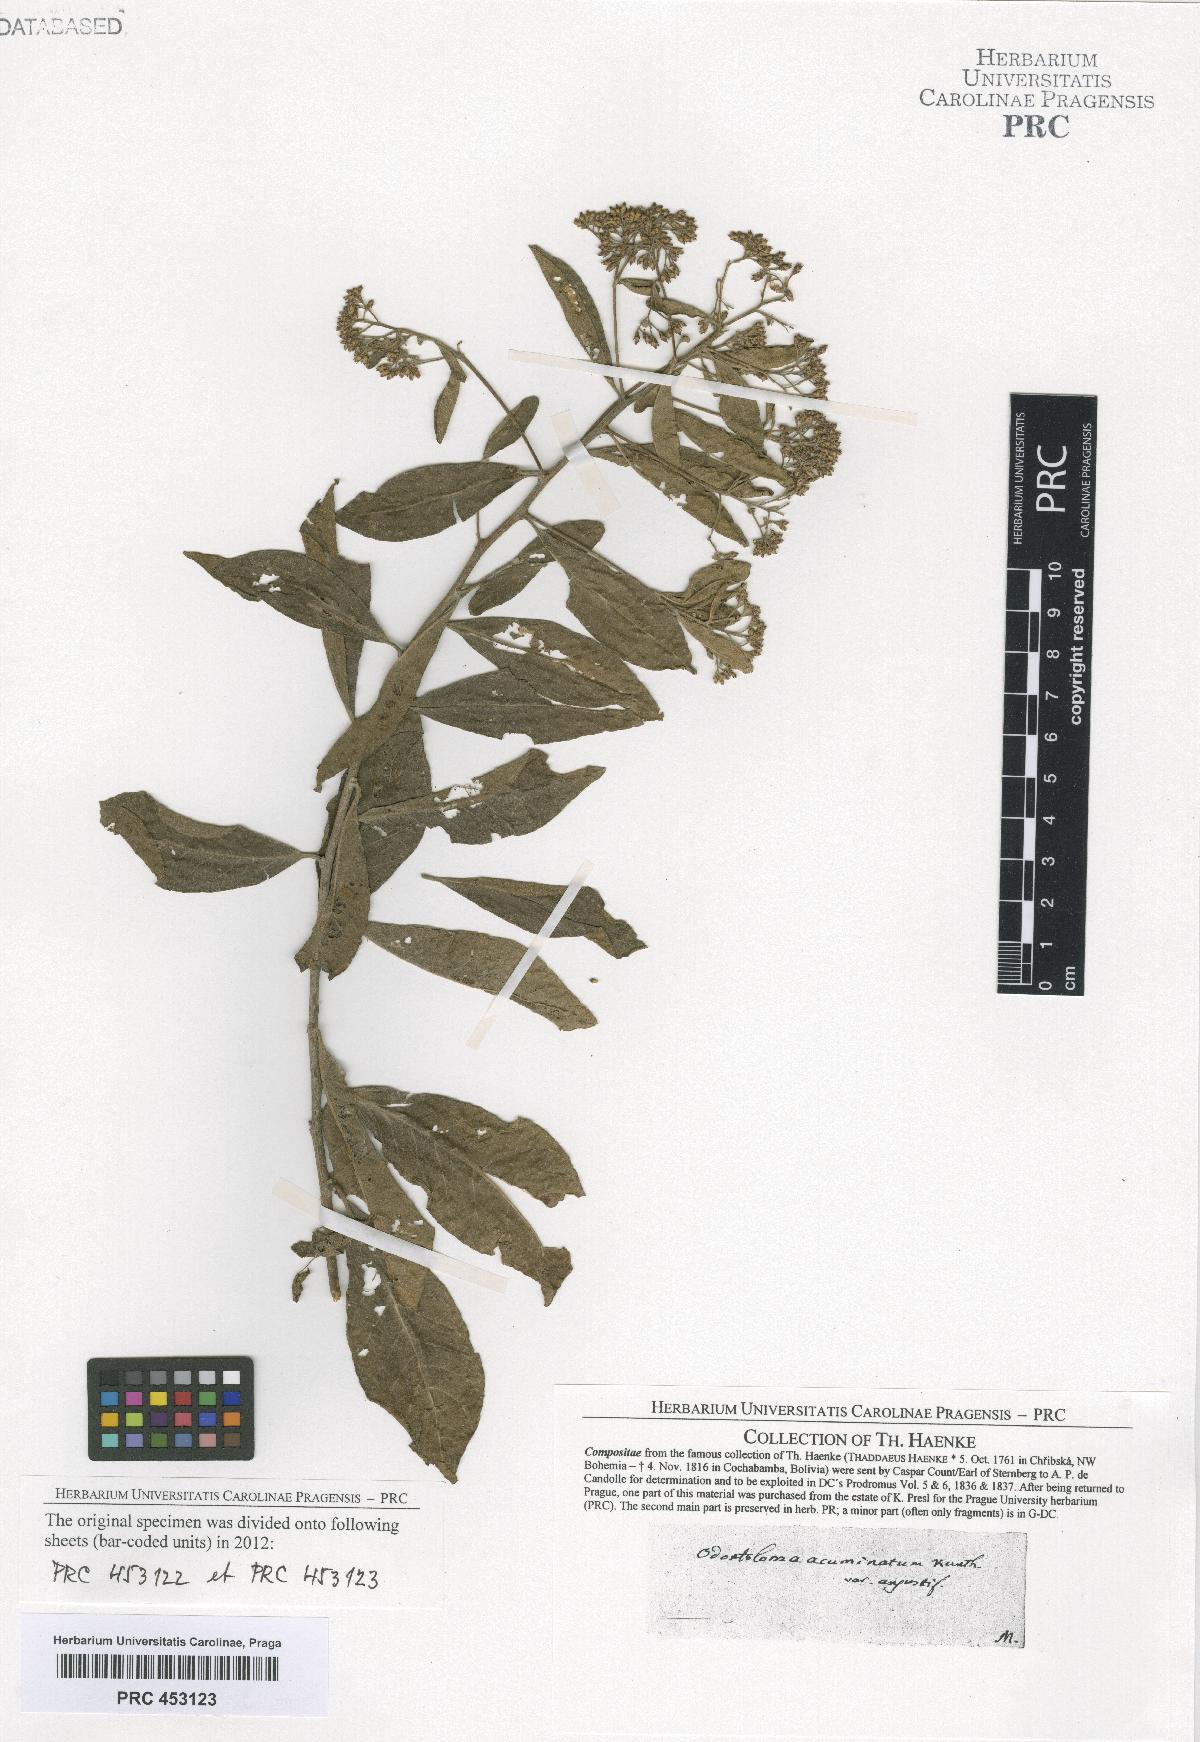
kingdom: Plantae
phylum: Tracheophyta
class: Magnoliopsida
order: Asterales
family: Asteraceae
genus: Piptocoma
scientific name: Piptocoma acuminata
